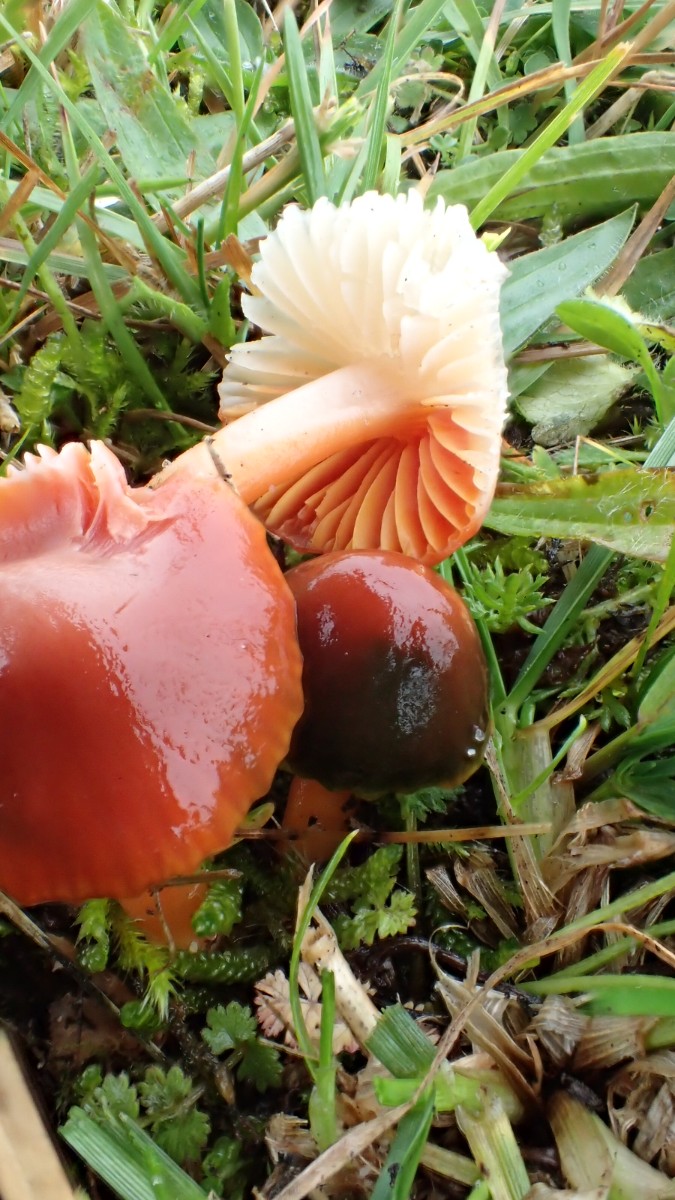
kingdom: Fungi
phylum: Basidiomycota
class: Agaricomycetes
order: Agaricales
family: Hygrophoraceae
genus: Gliophorus
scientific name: Gliophorus europerplexus
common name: Butterscotch waxcap
